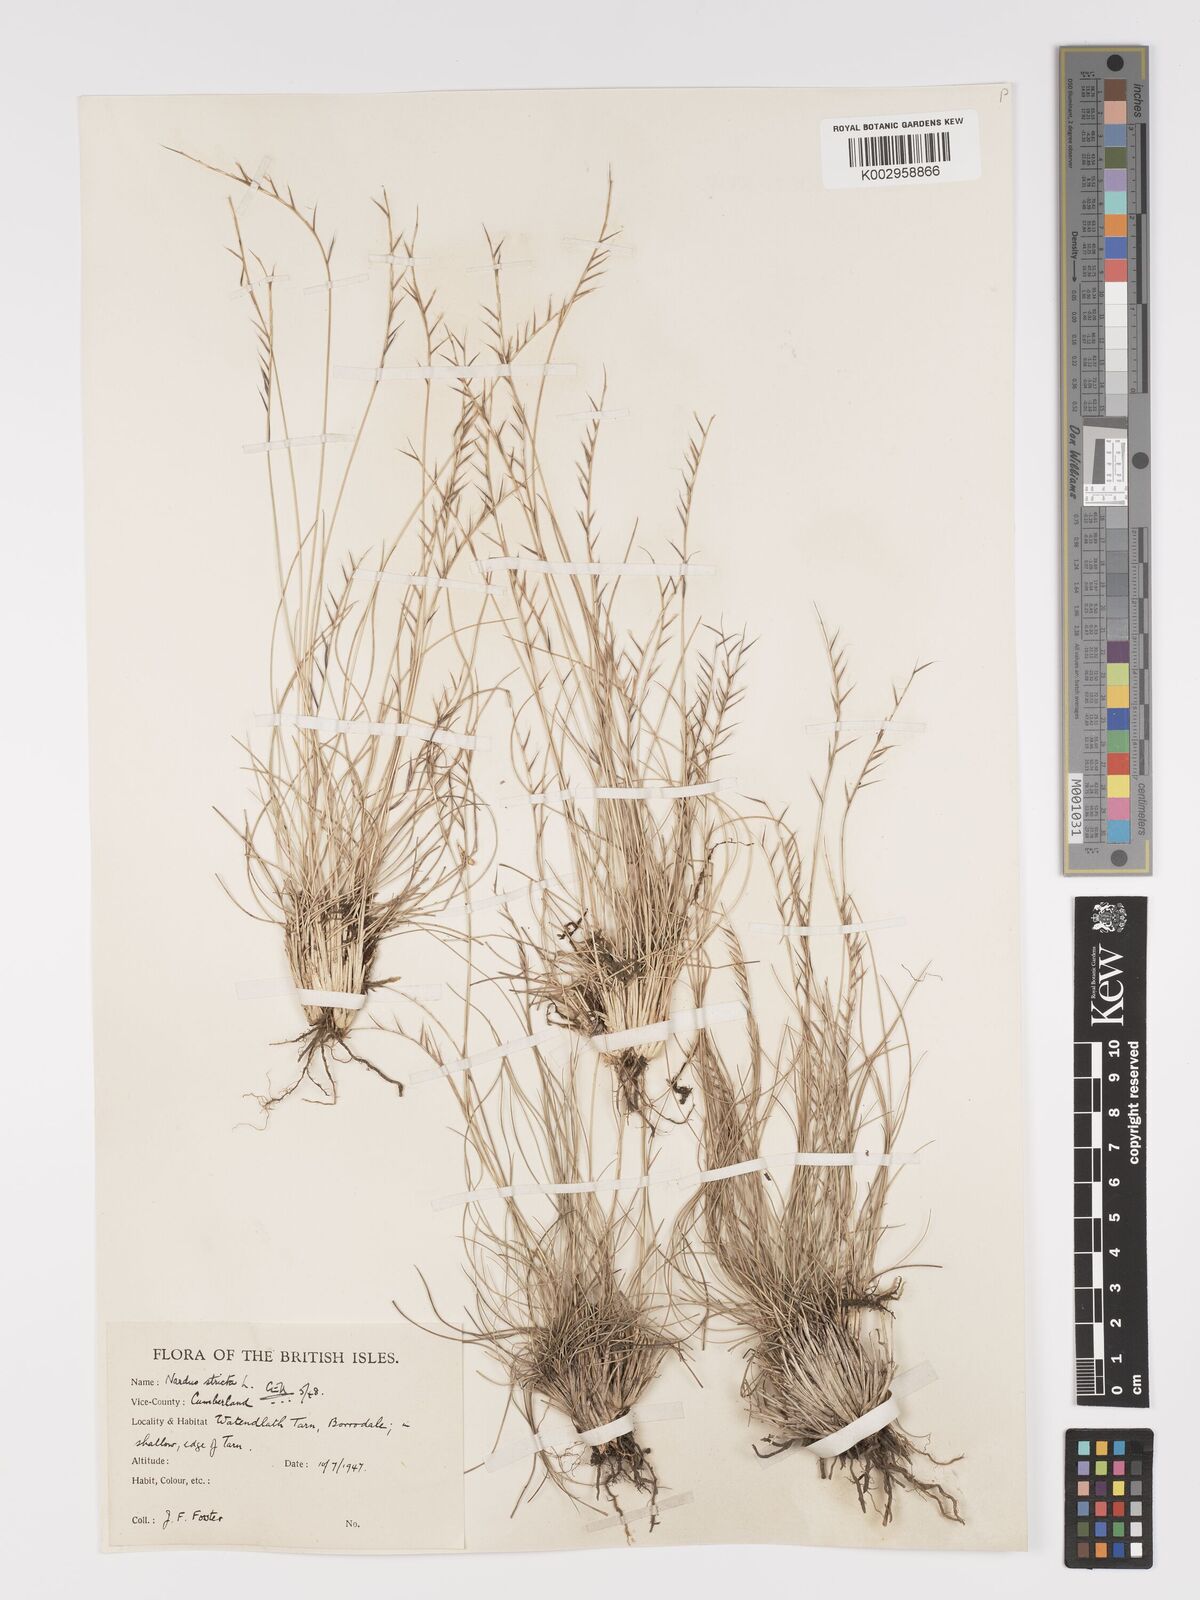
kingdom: Plantae
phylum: Tracheophyta
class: Liliopsida
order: Poales
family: Poaceae
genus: Nardus
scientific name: Nardus stricta
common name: Mat-grass
